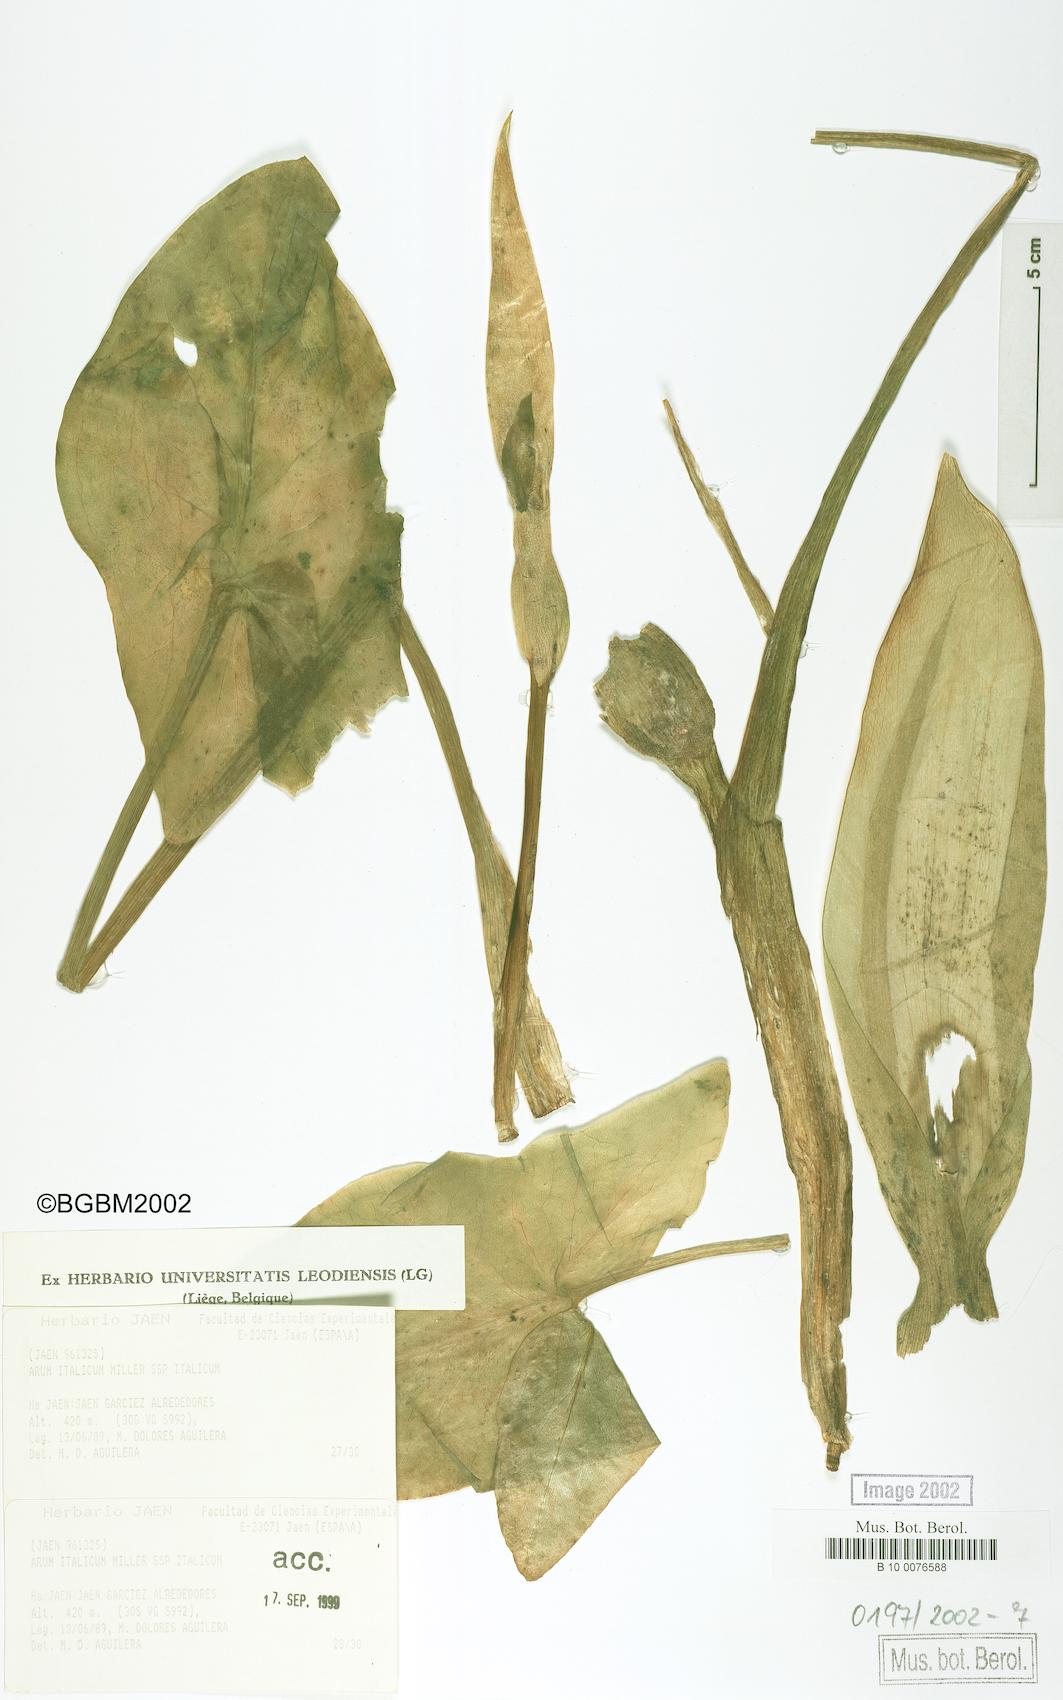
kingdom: Plantae
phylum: Tracheophyta
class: Liliopsida
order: Alismatales
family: Araceae
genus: Arum
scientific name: Arum italicum
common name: Italian lords-and-ladies
